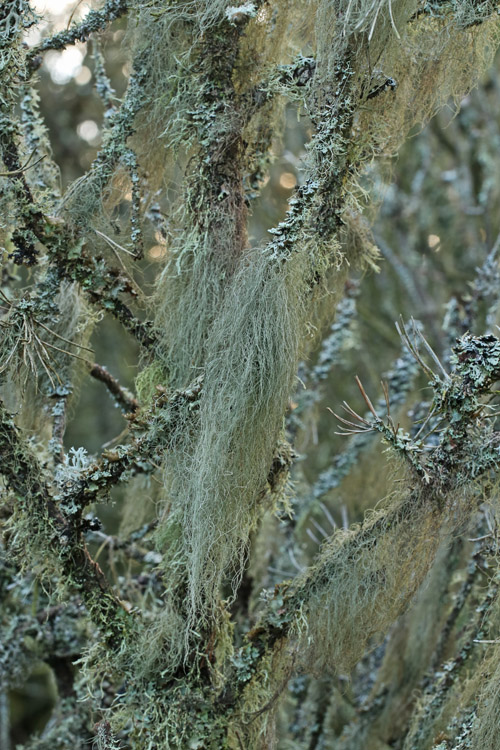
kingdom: Fungi
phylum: Ascomycota
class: Lecanoromycetes
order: Lecanorales
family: Parmeliaceae
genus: Bryoria
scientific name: Bryoria capillaris
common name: grå mankelav
